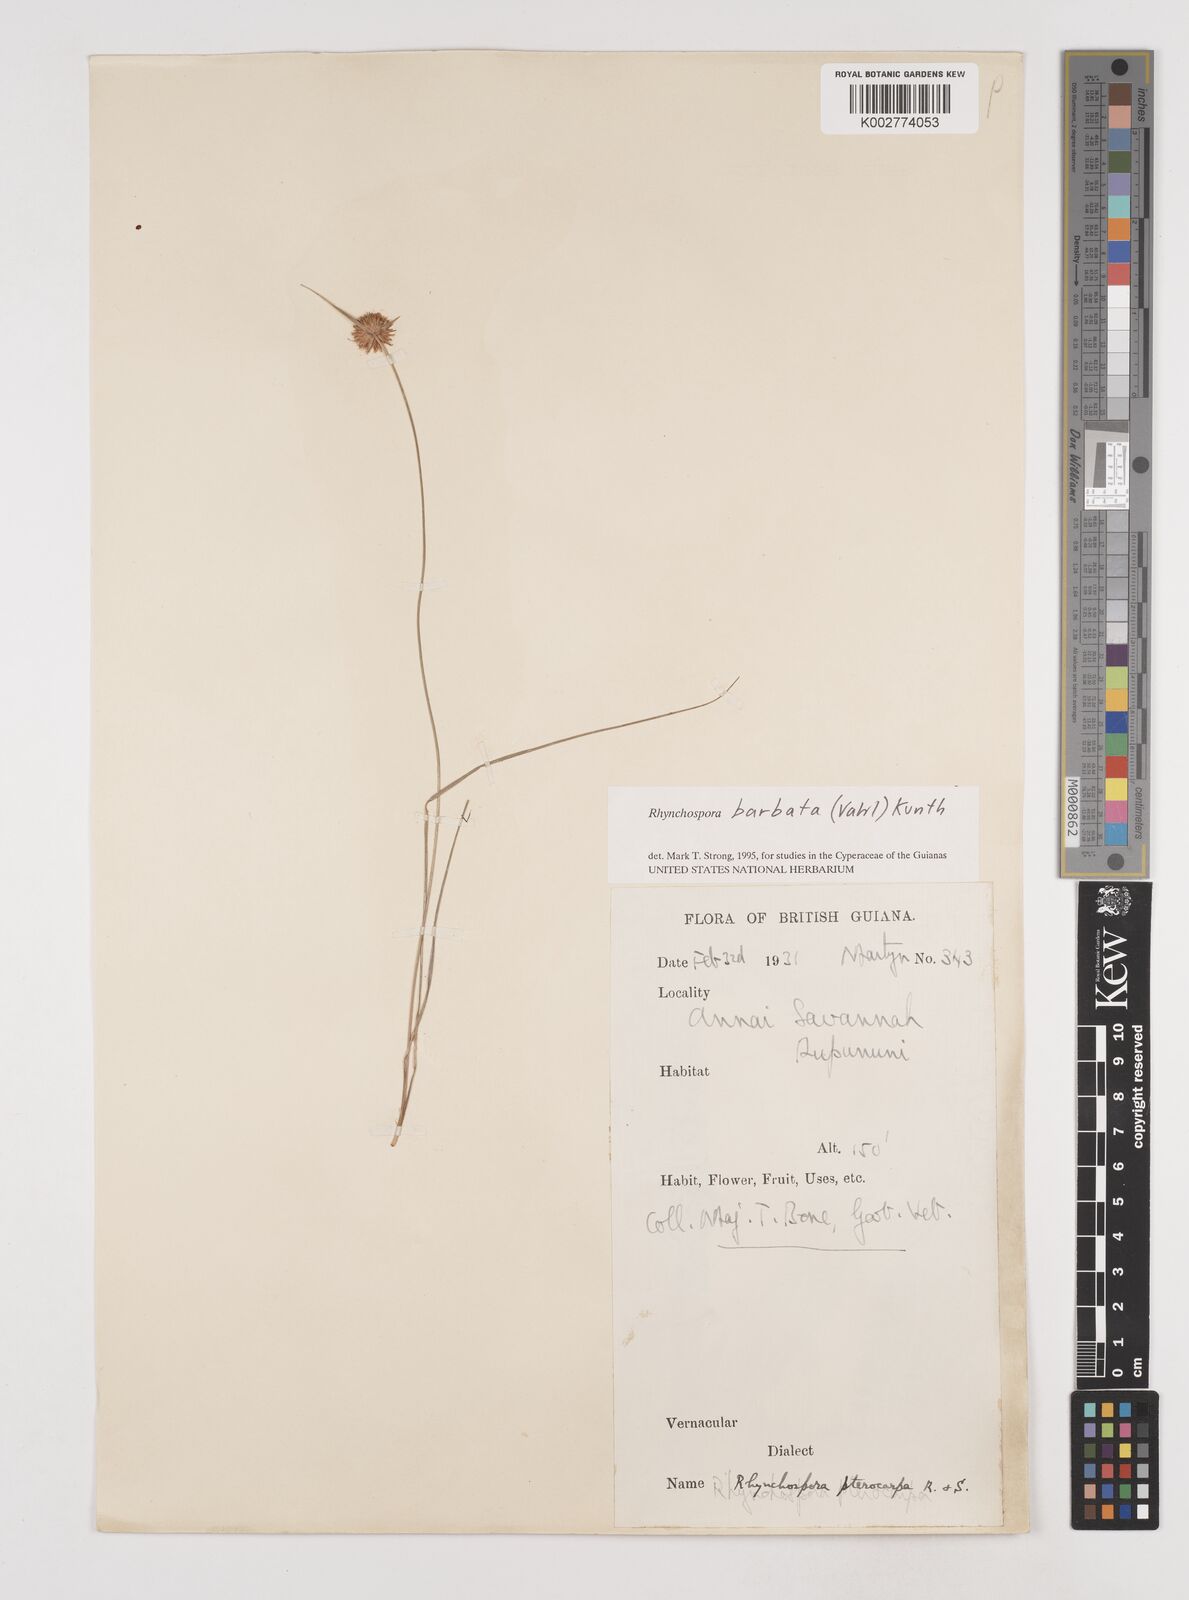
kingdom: Plantae
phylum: Tracheophyta
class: Liliopsida
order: Poales
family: Cyperaceae
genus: Rhynchospora
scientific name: Rhynchospora barbata
